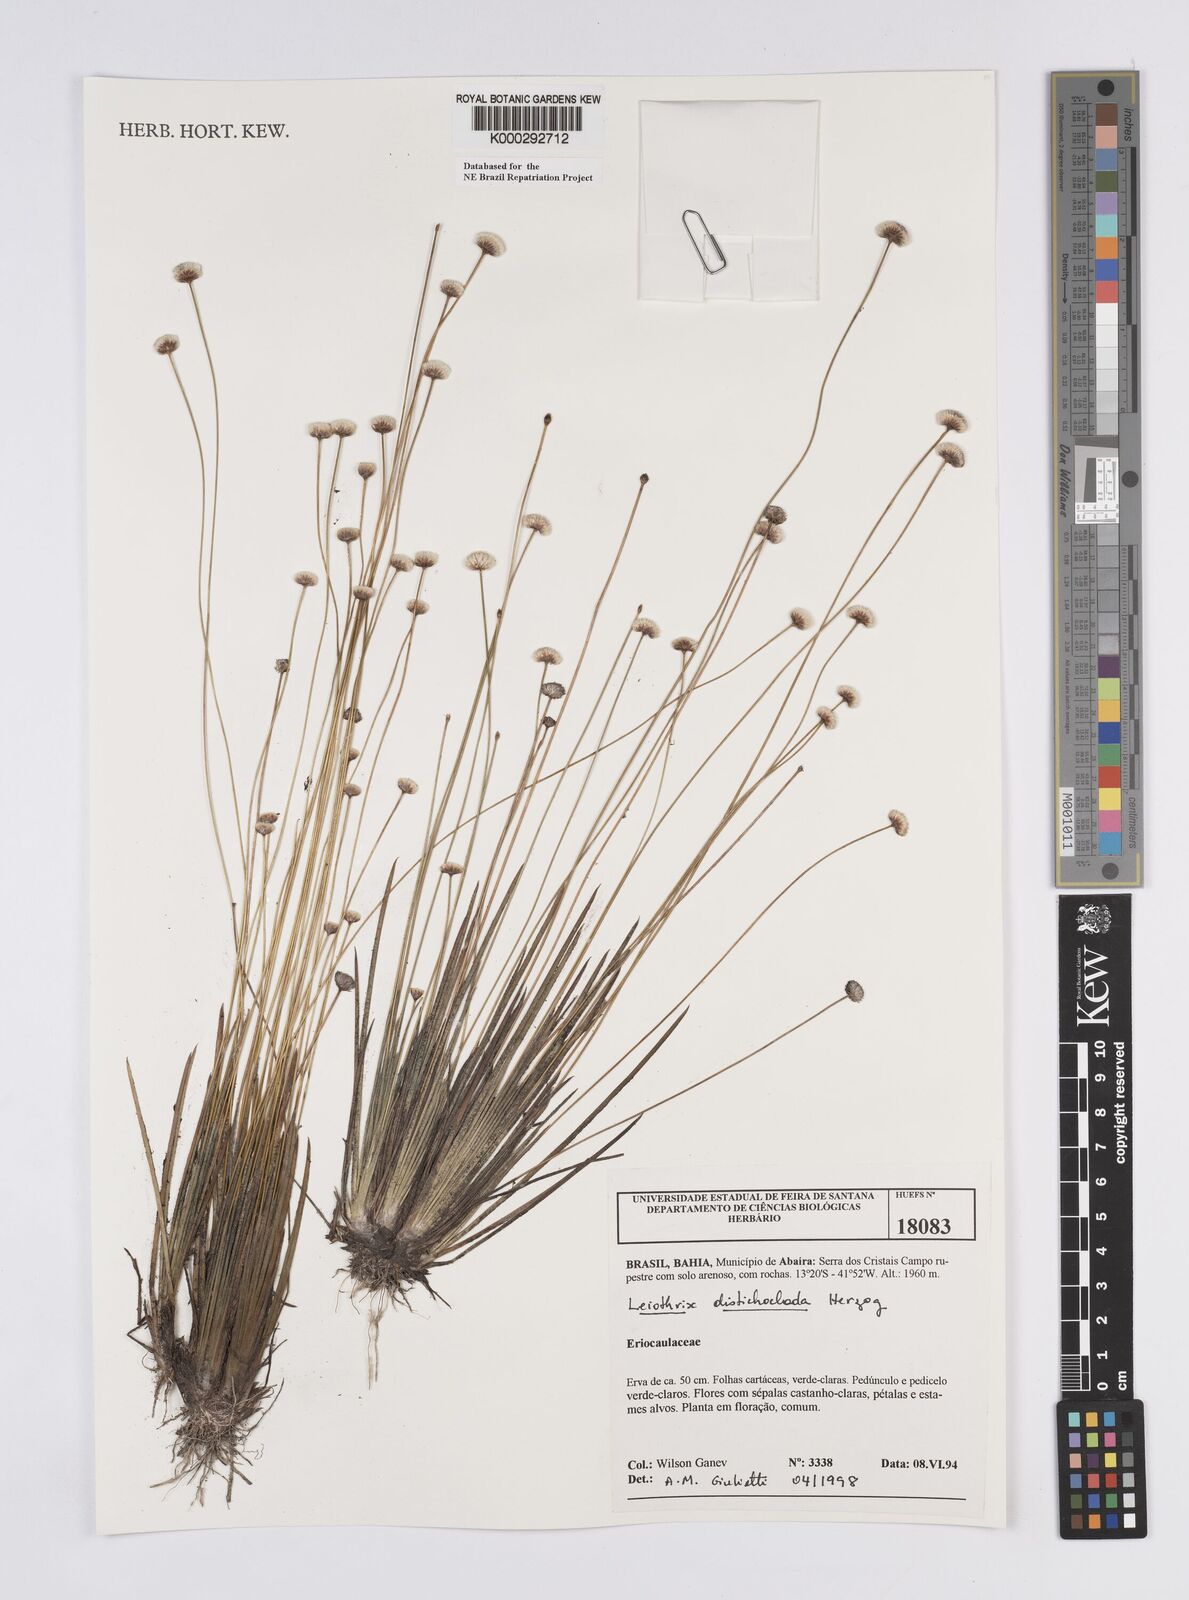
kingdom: Plantae
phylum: Tracheophyta
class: Liliopsida
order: Poales
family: Eriocaulaceae
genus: Leiothrix
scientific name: Leiothrix distichoclada
